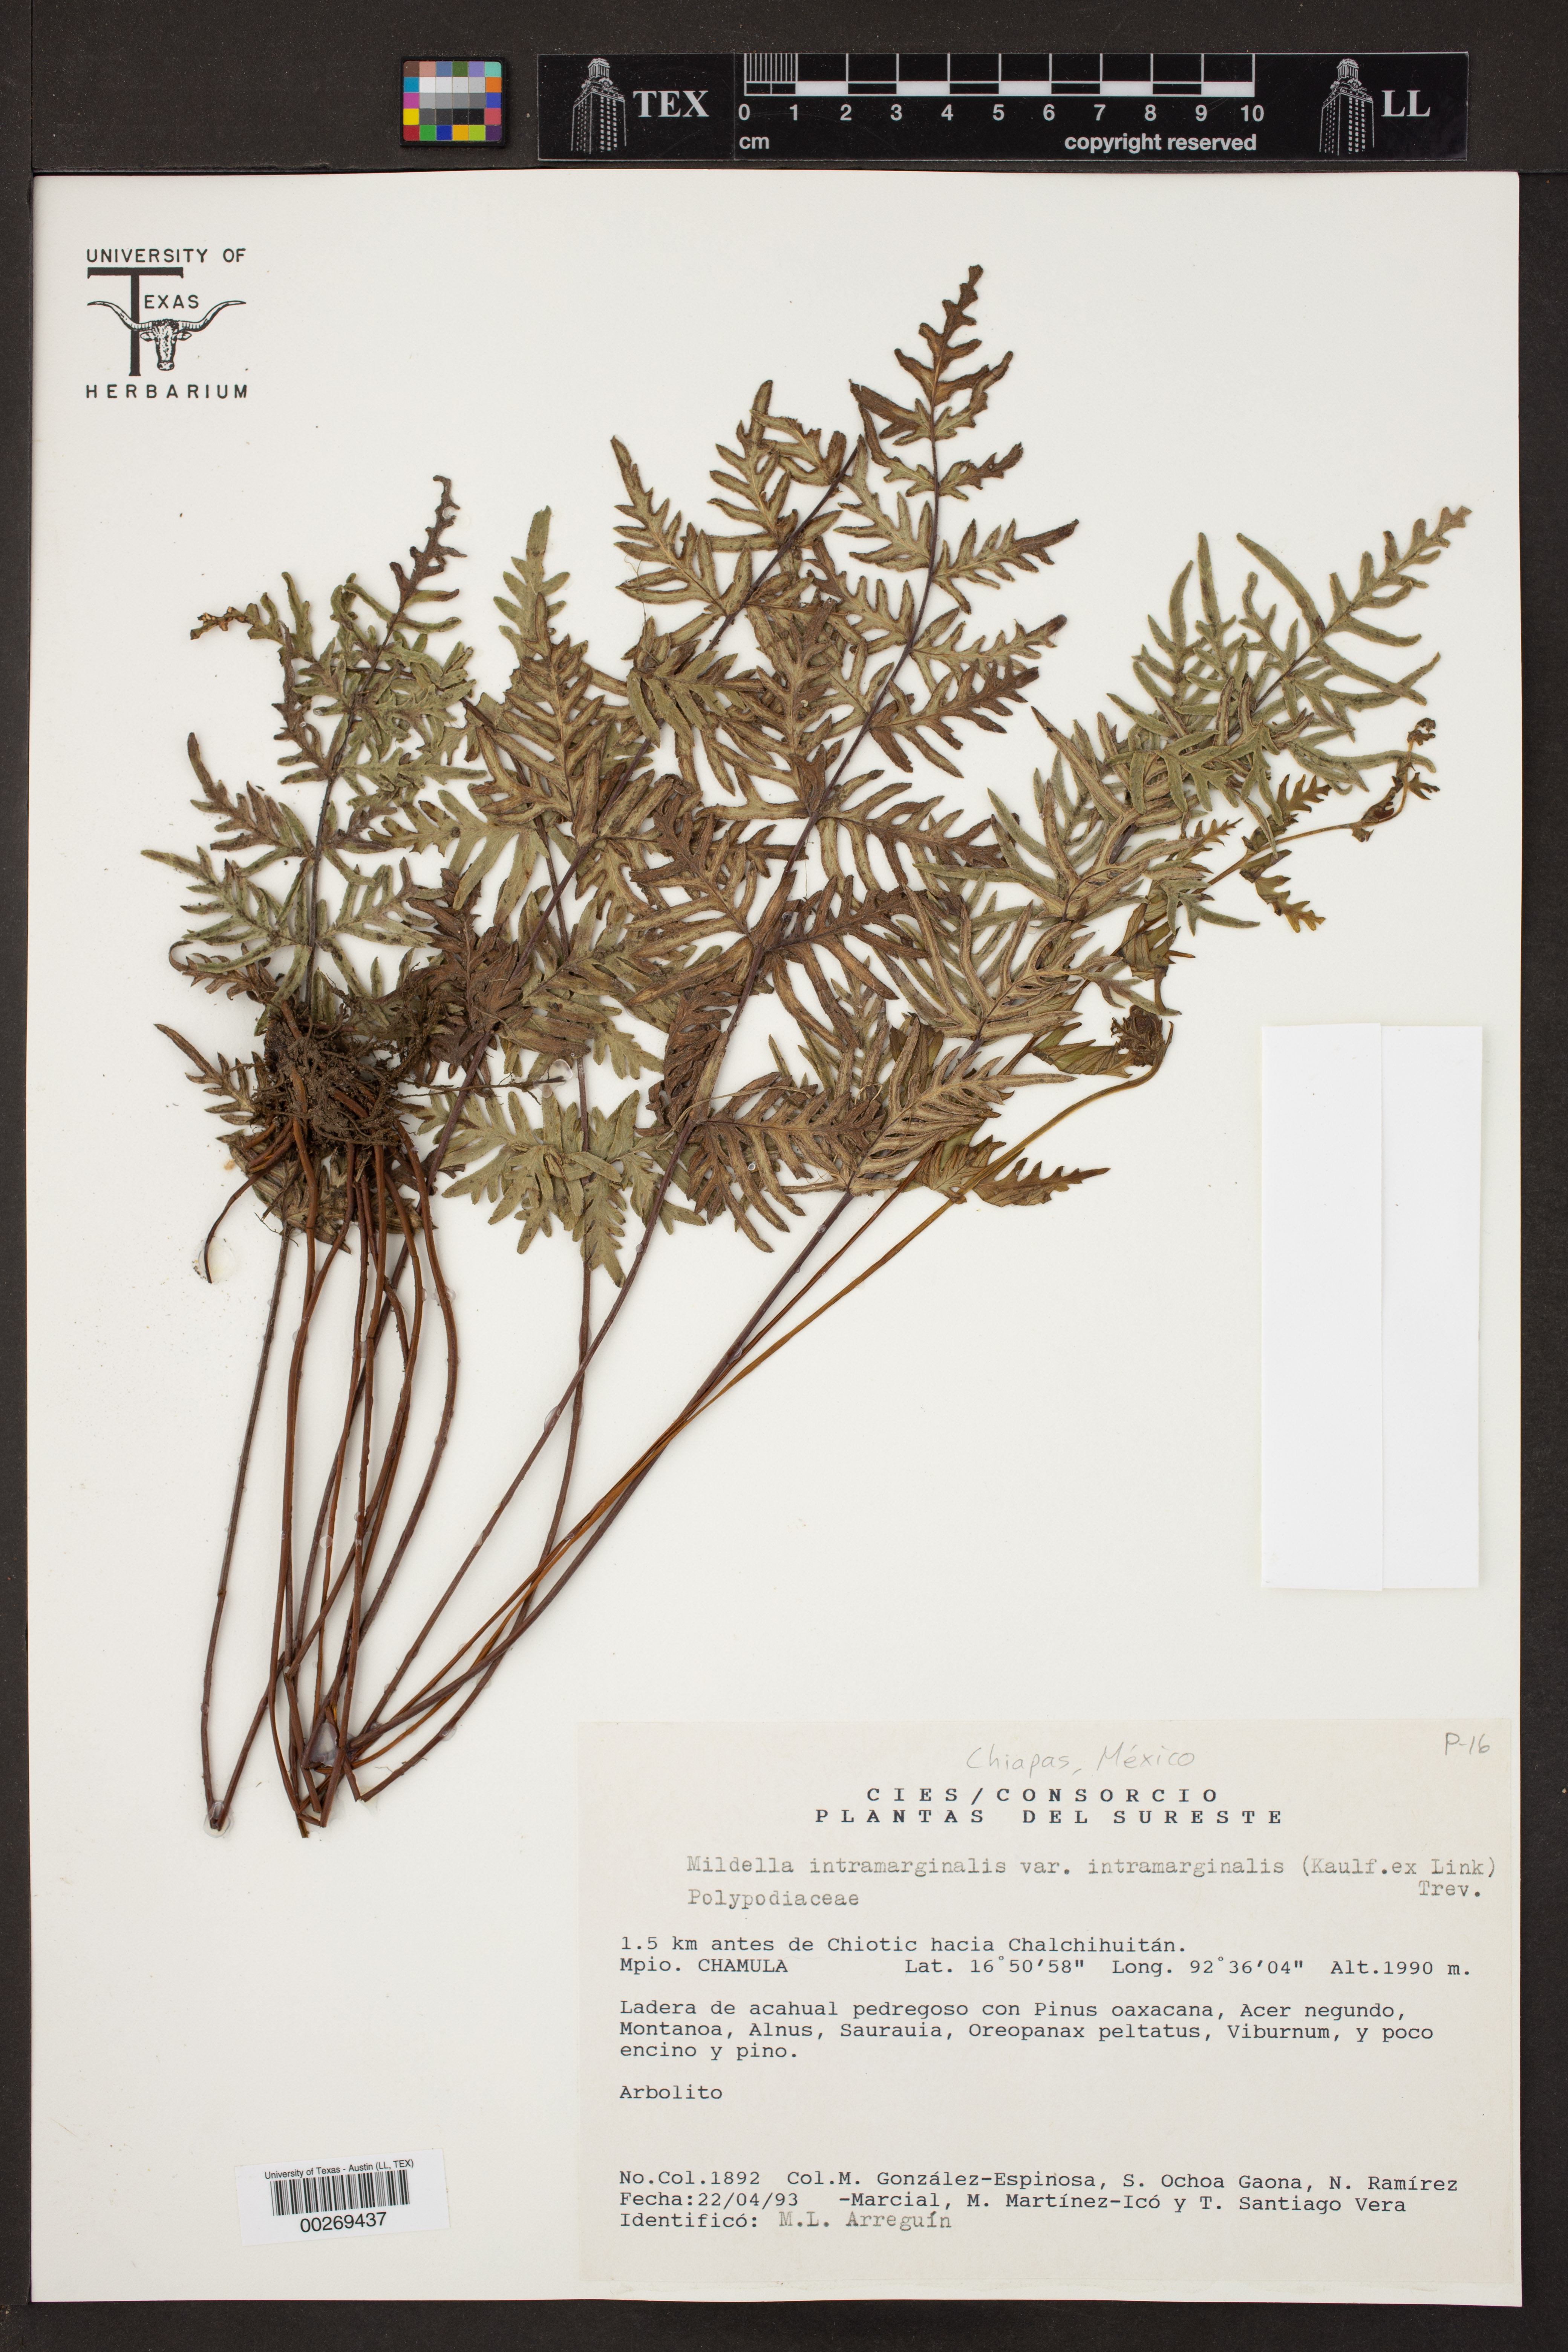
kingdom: Plantae
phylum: Tracheophyta
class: Polypodiopsida
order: Polypodiales
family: Pteridaceae
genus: Mildella
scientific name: Mildella intramarginalis
